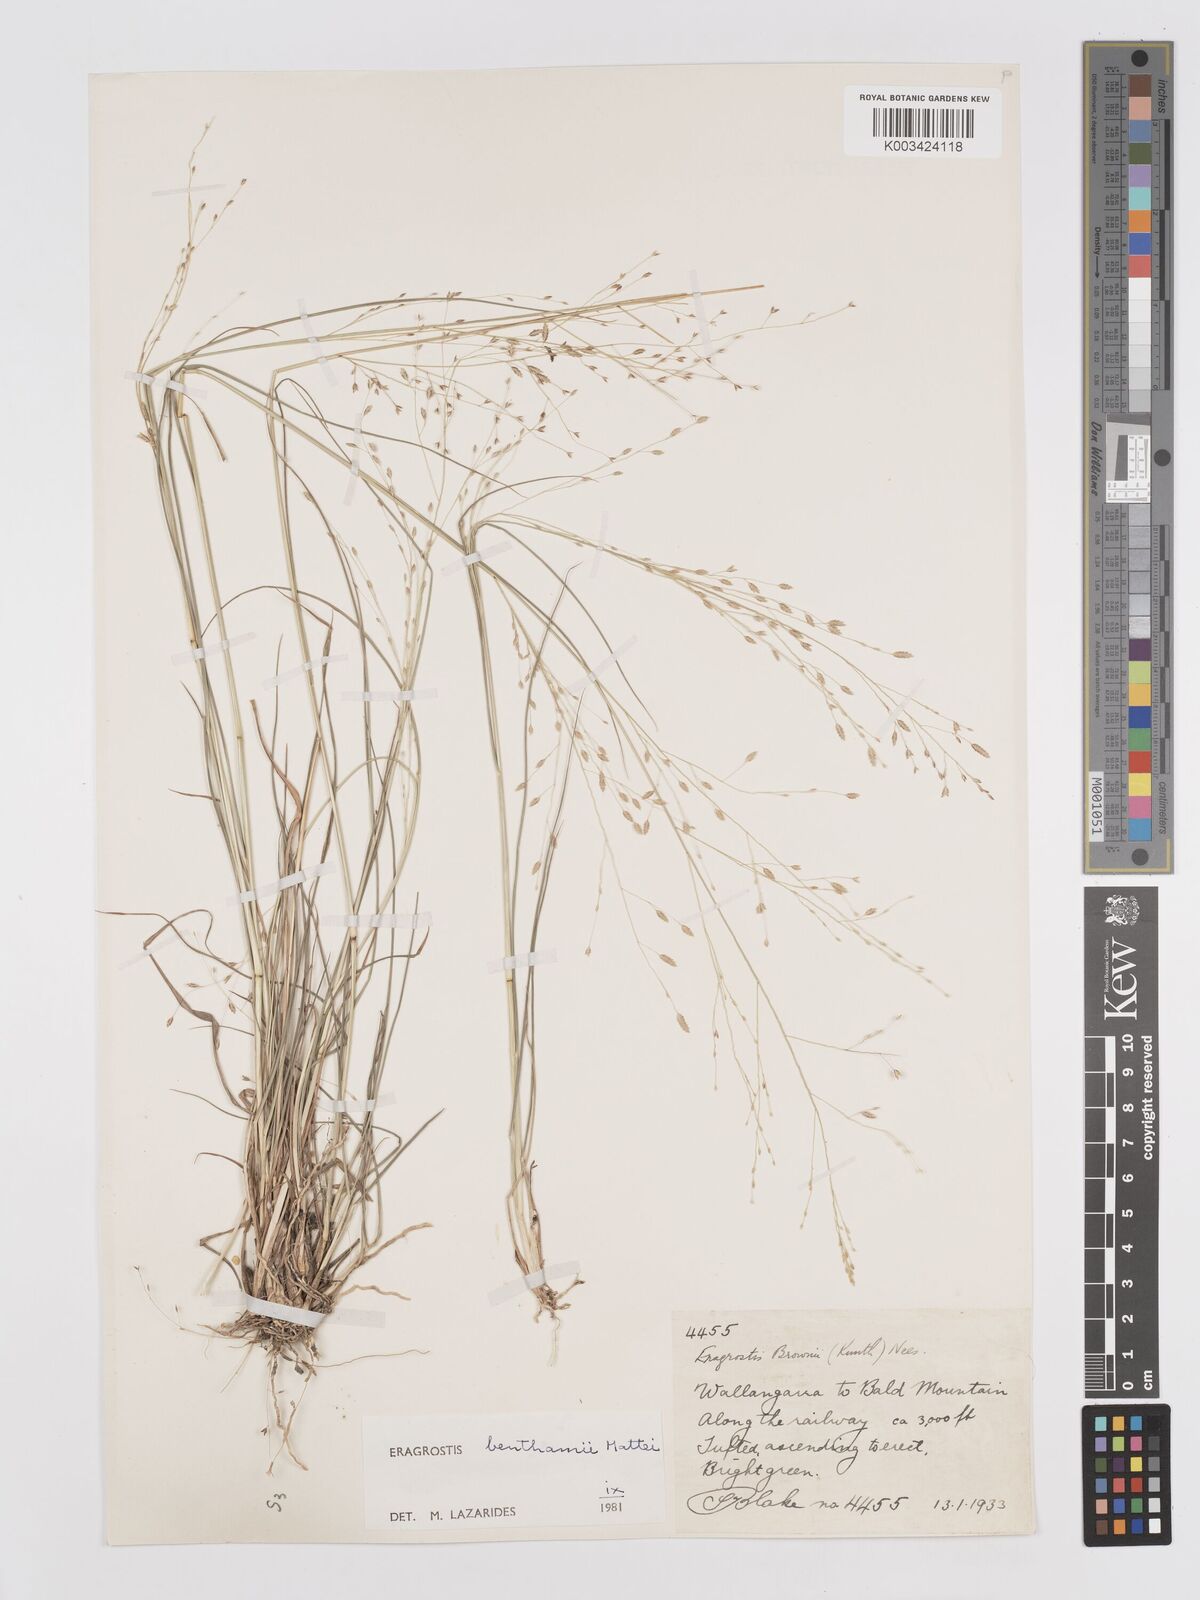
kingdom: Plantae
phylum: Tracheophyta
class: Liliopsida
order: Poales
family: Poaceae
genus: Eragrostis
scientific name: Eragrostis brownii
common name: Lovegrass
